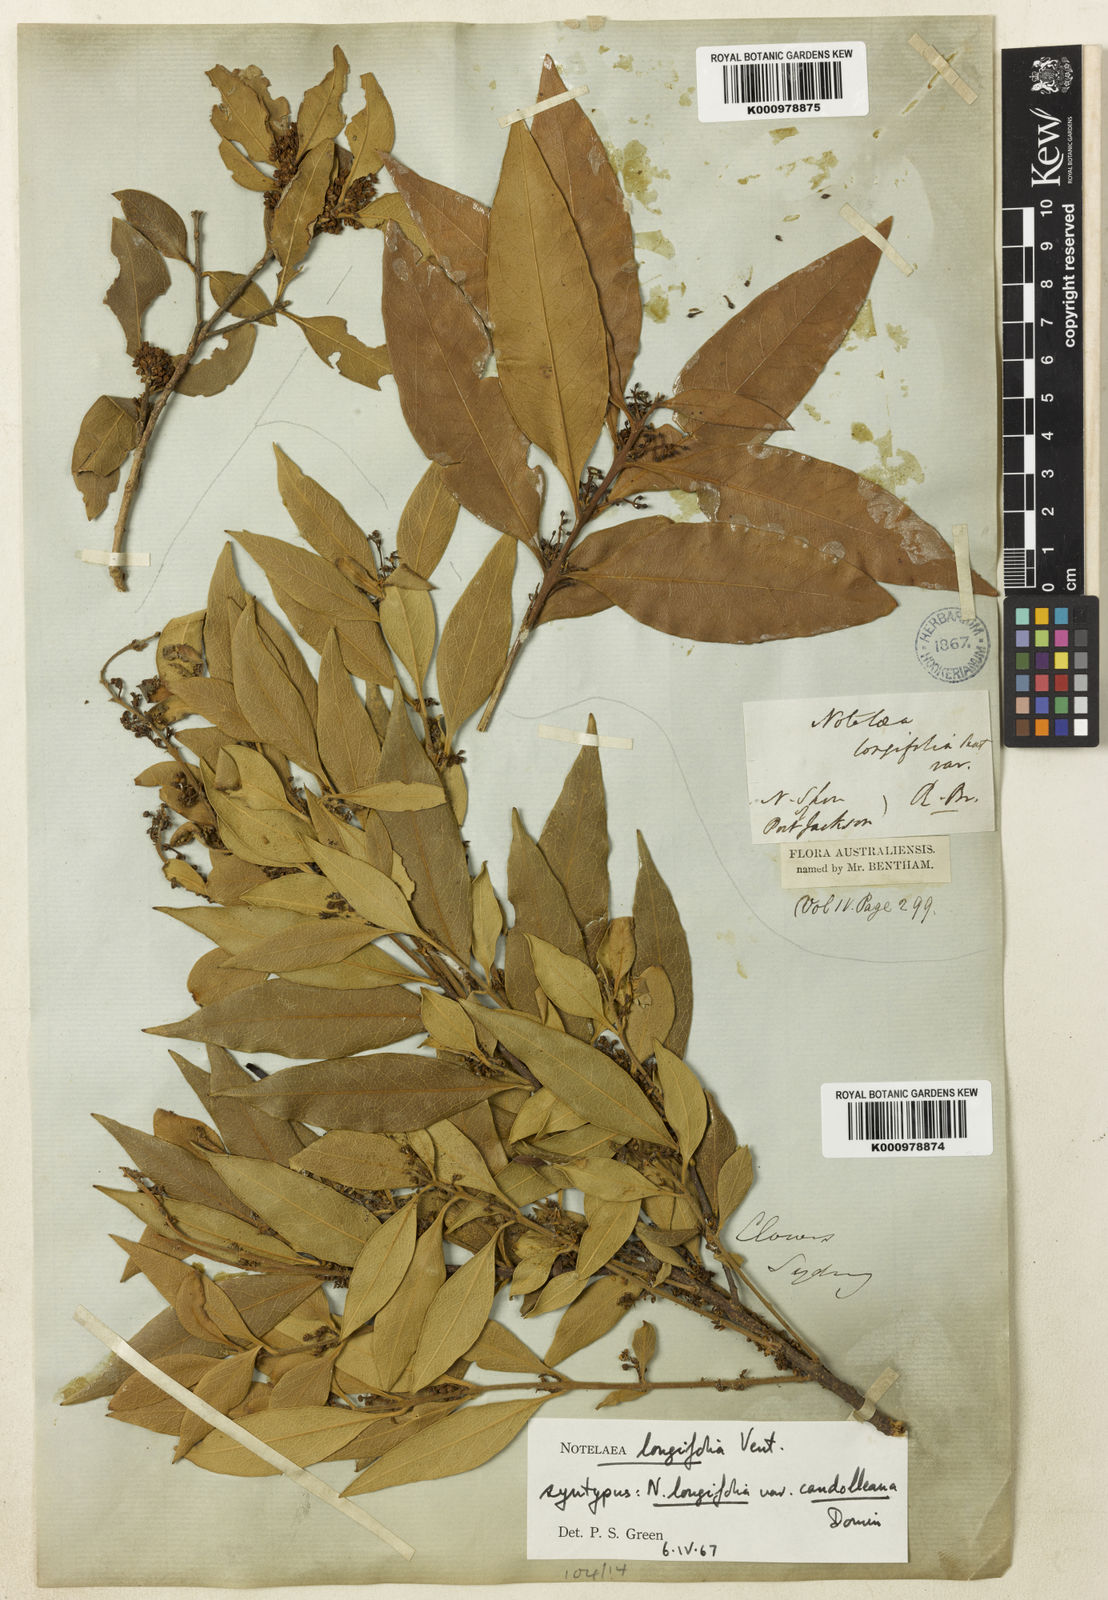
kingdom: Plantae
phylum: Tracheophyta
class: Magnoliopsida
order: Lamiales
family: Oleaceae
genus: Notelaea
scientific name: Notelaea longifolia
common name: Large mock olive
